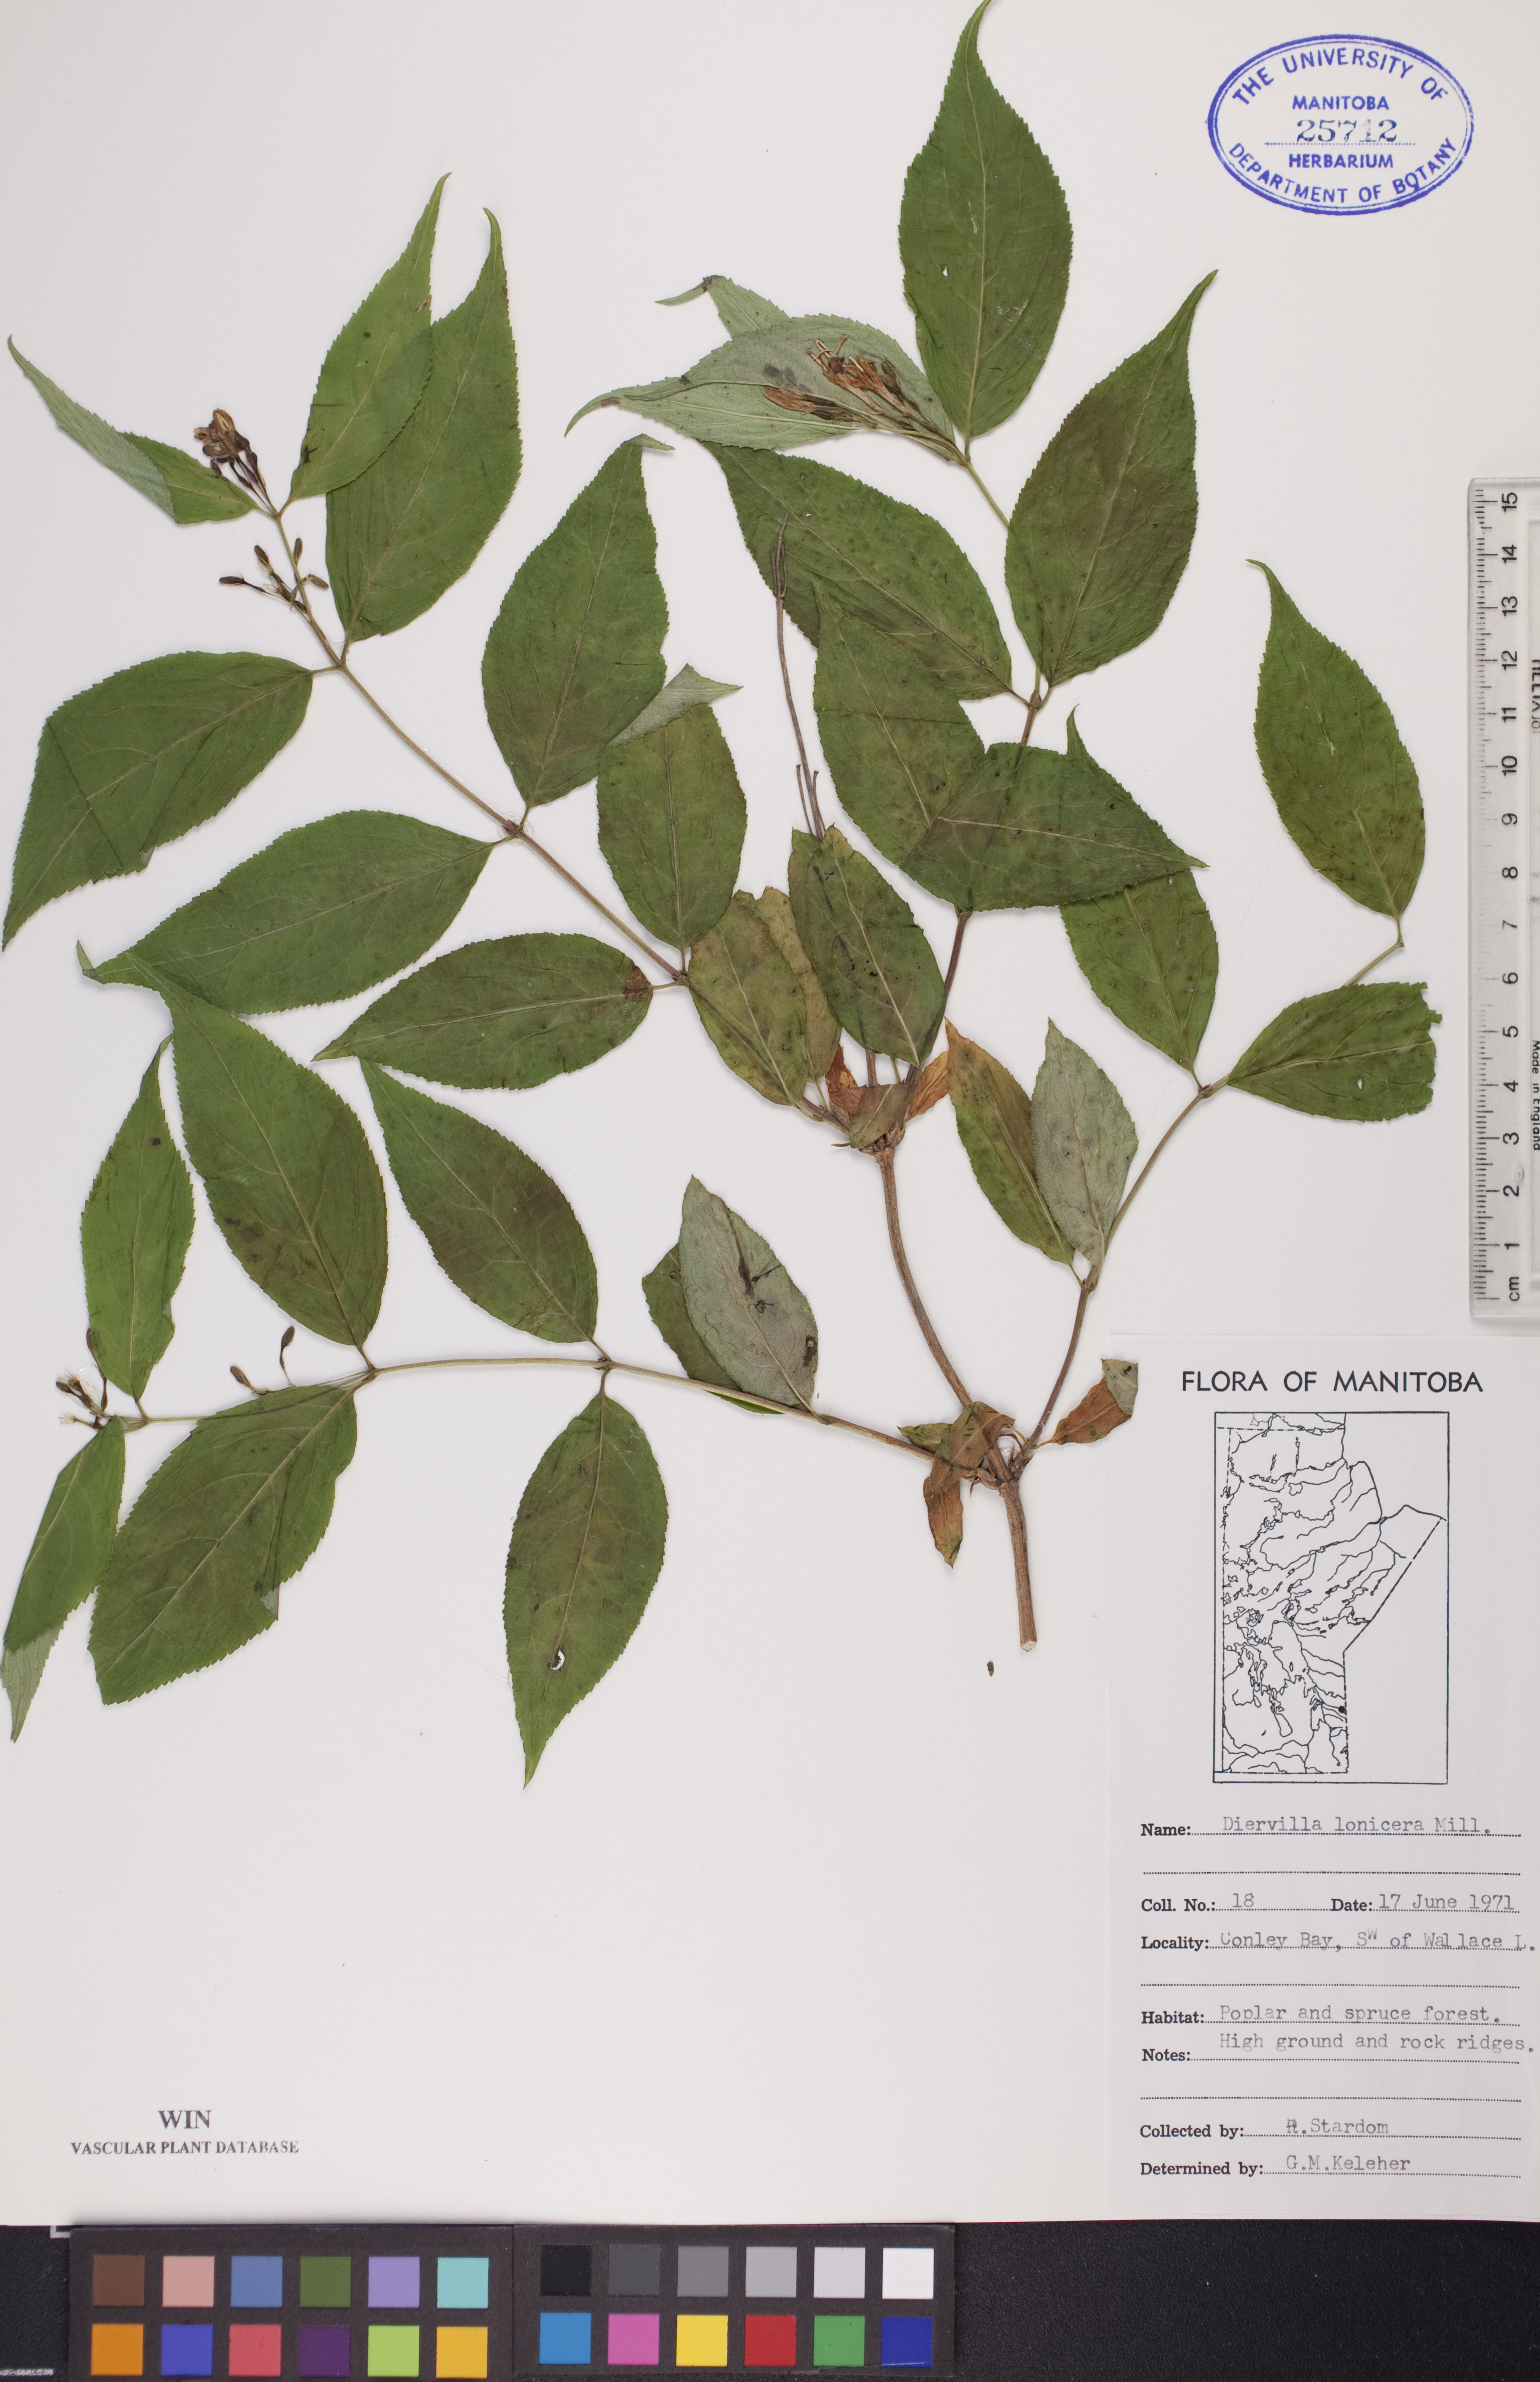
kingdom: Plantae
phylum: Tracheophyta
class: Magnoliopsida
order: Dipsacales
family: Caprifoliaceae
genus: Diervilla
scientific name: Diervilla lonicera
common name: Bush-honeysuckle
